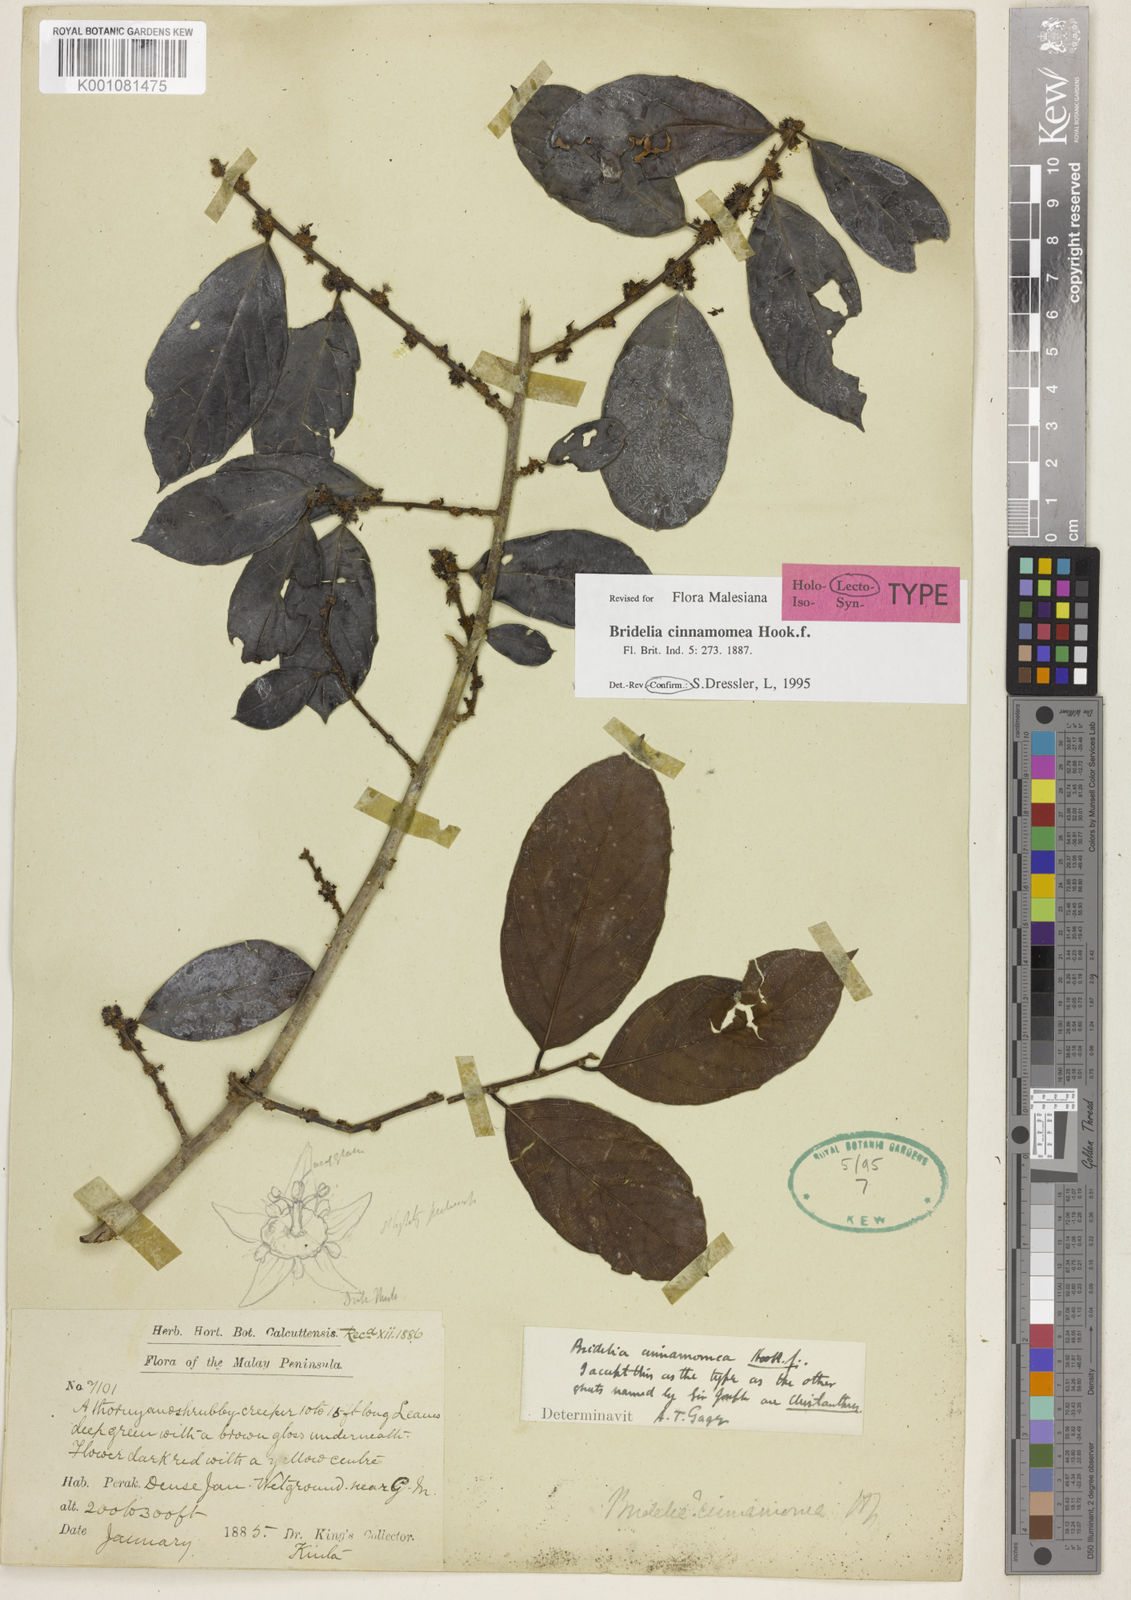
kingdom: Plantae
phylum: Tracheophyta
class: Magnoliopsida
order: Malpighiales
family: Phyllanthaceae
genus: Bridelia
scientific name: Bridelia cinnamomea
